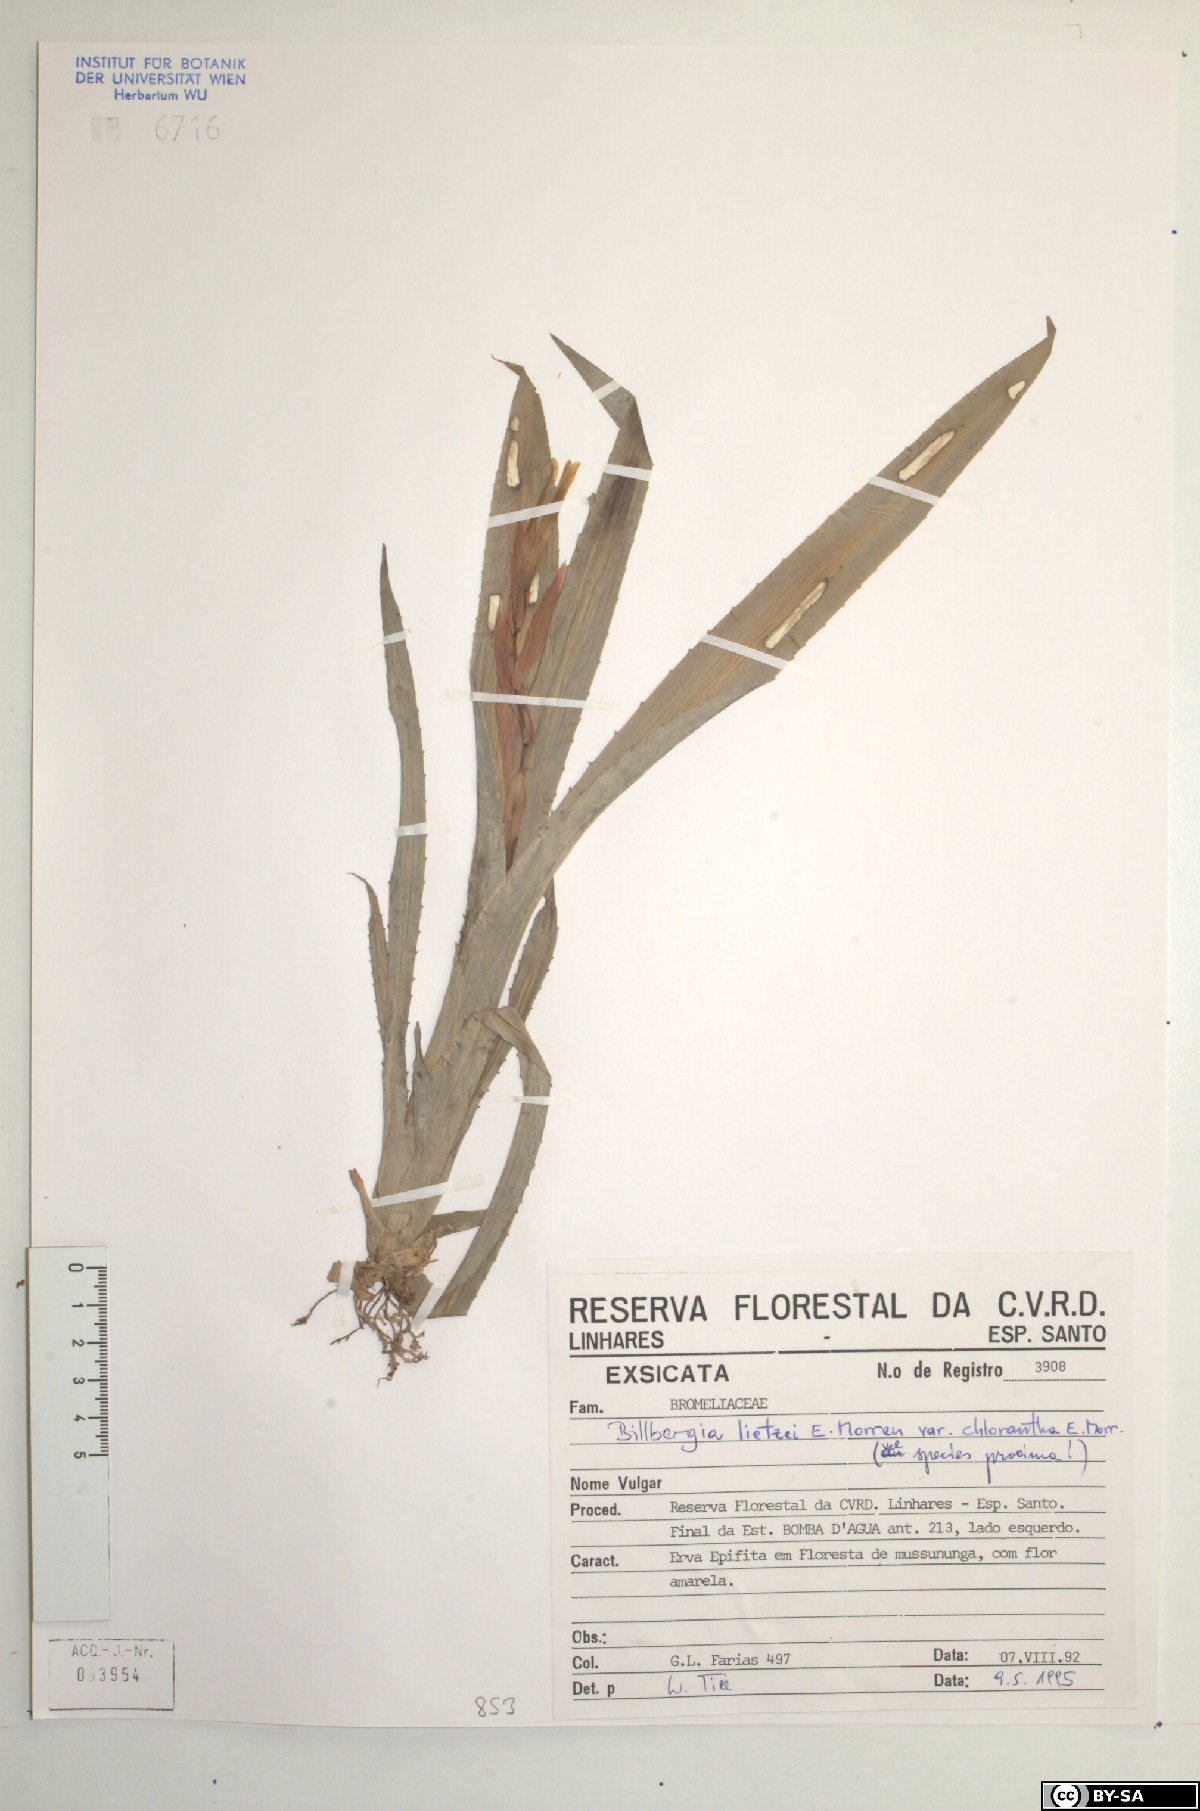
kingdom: Plantae
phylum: Tracheophyta
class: Liliopsida
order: Poales
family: Bromeliaceae
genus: Billbergia
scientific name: Billbergia lietzei
